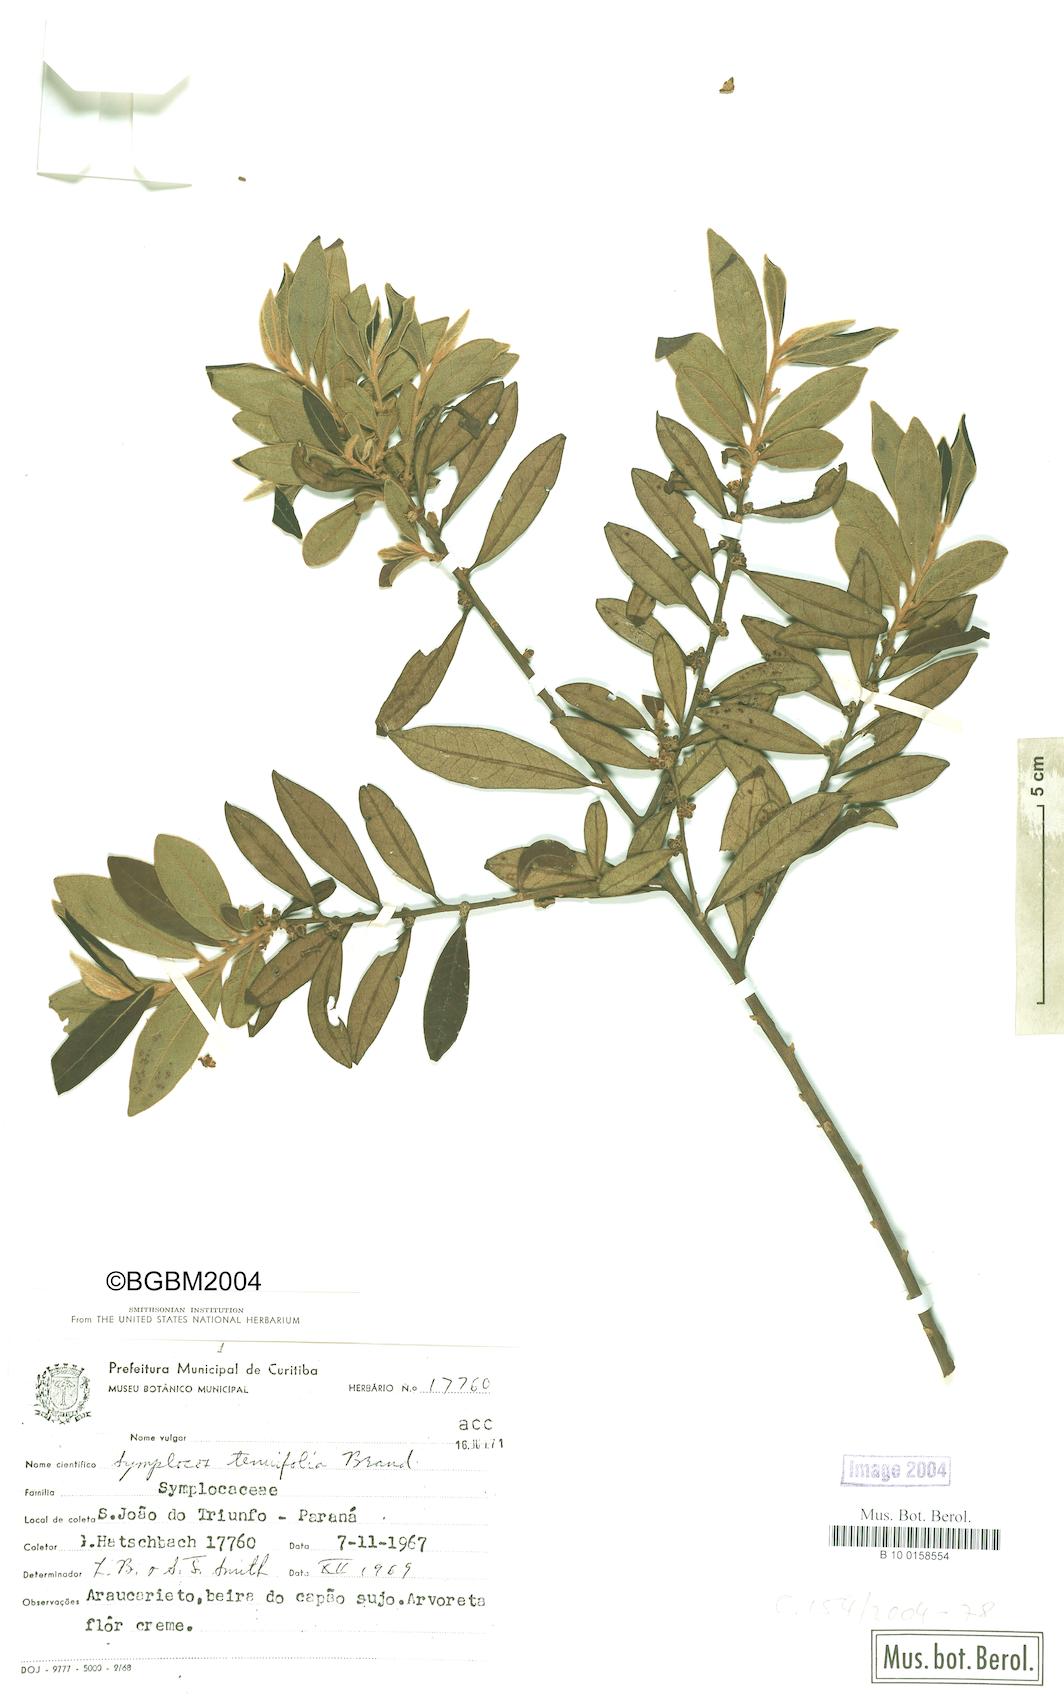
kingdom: Plantae
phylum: Tracheophyta
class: Magnoliopsida
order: Ericales
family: Symplocaceae
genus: Symplocos
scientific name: Symplocos tenuifolia
